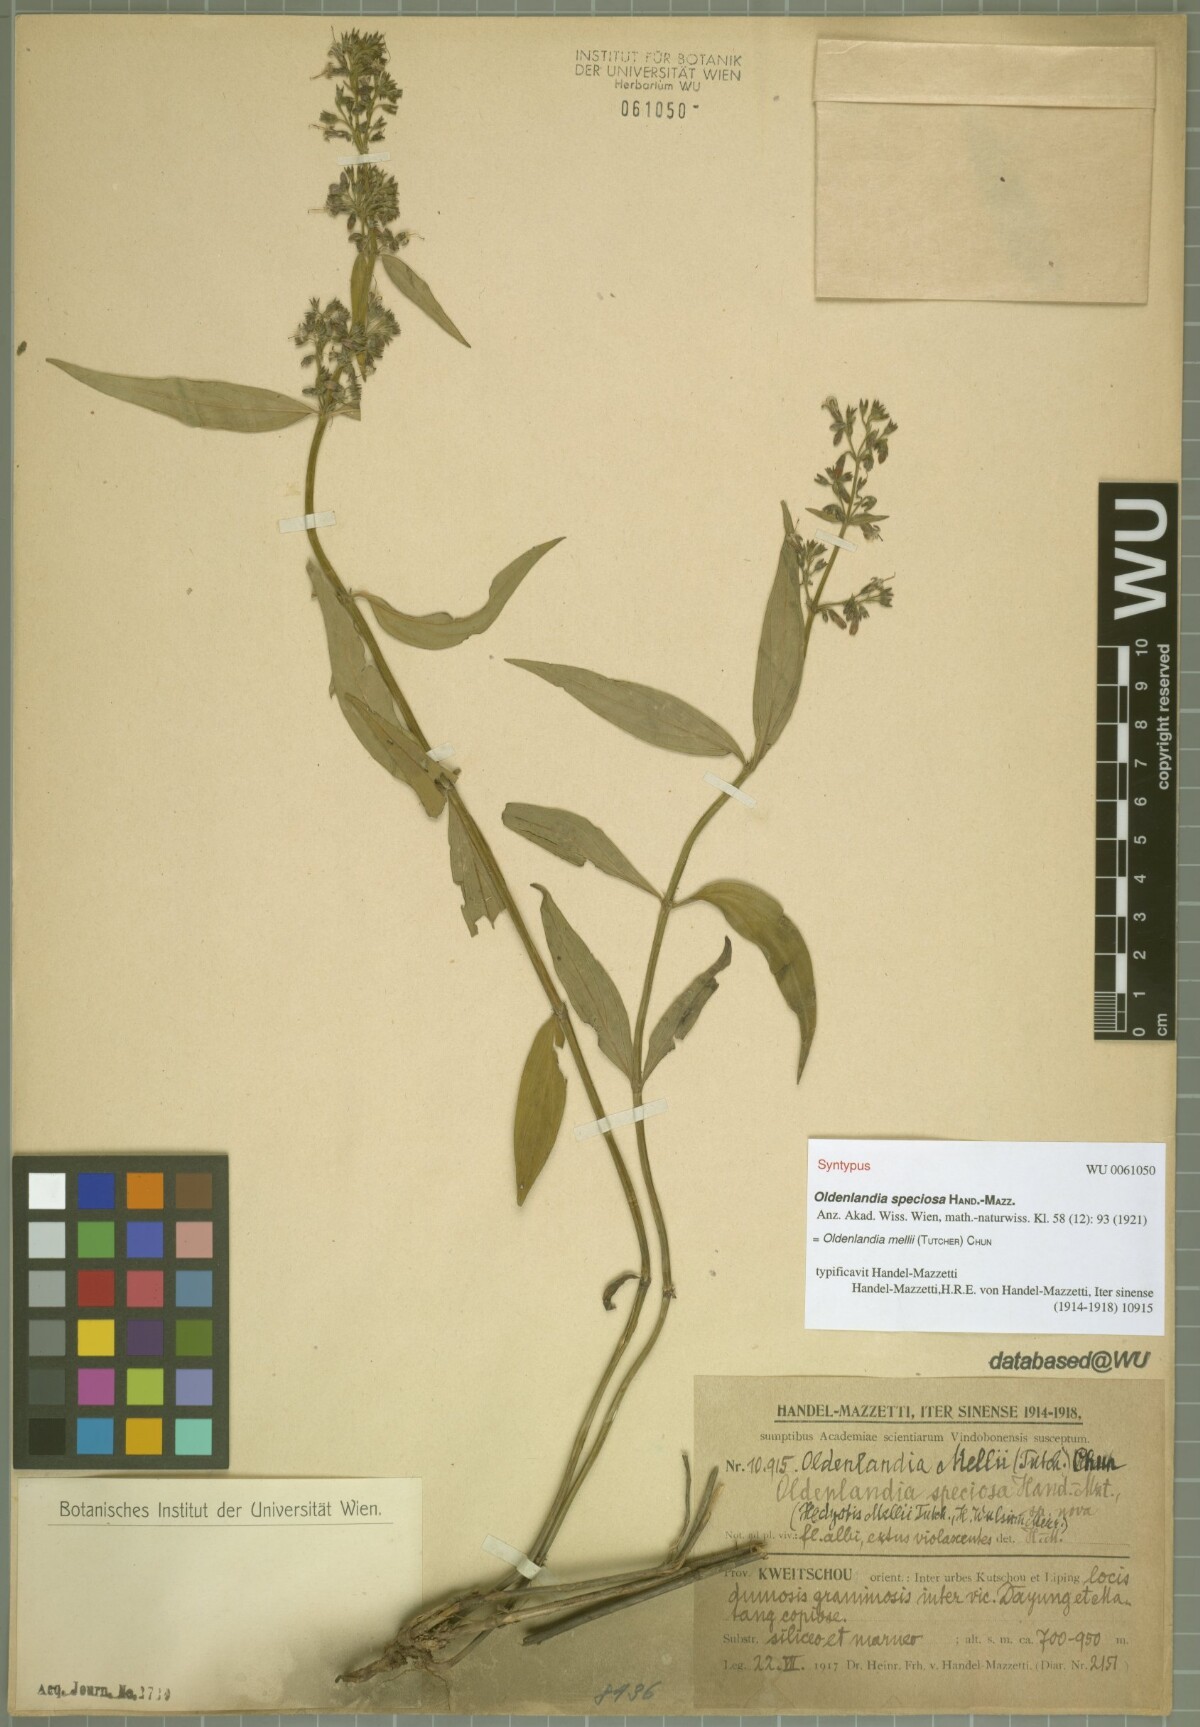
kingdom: Plantae
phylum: Tracheophyta
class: Magnoliopsida
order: Gentianales
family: Rubiaceae
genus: Hedyotis
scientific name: Hedyotis matthewii
